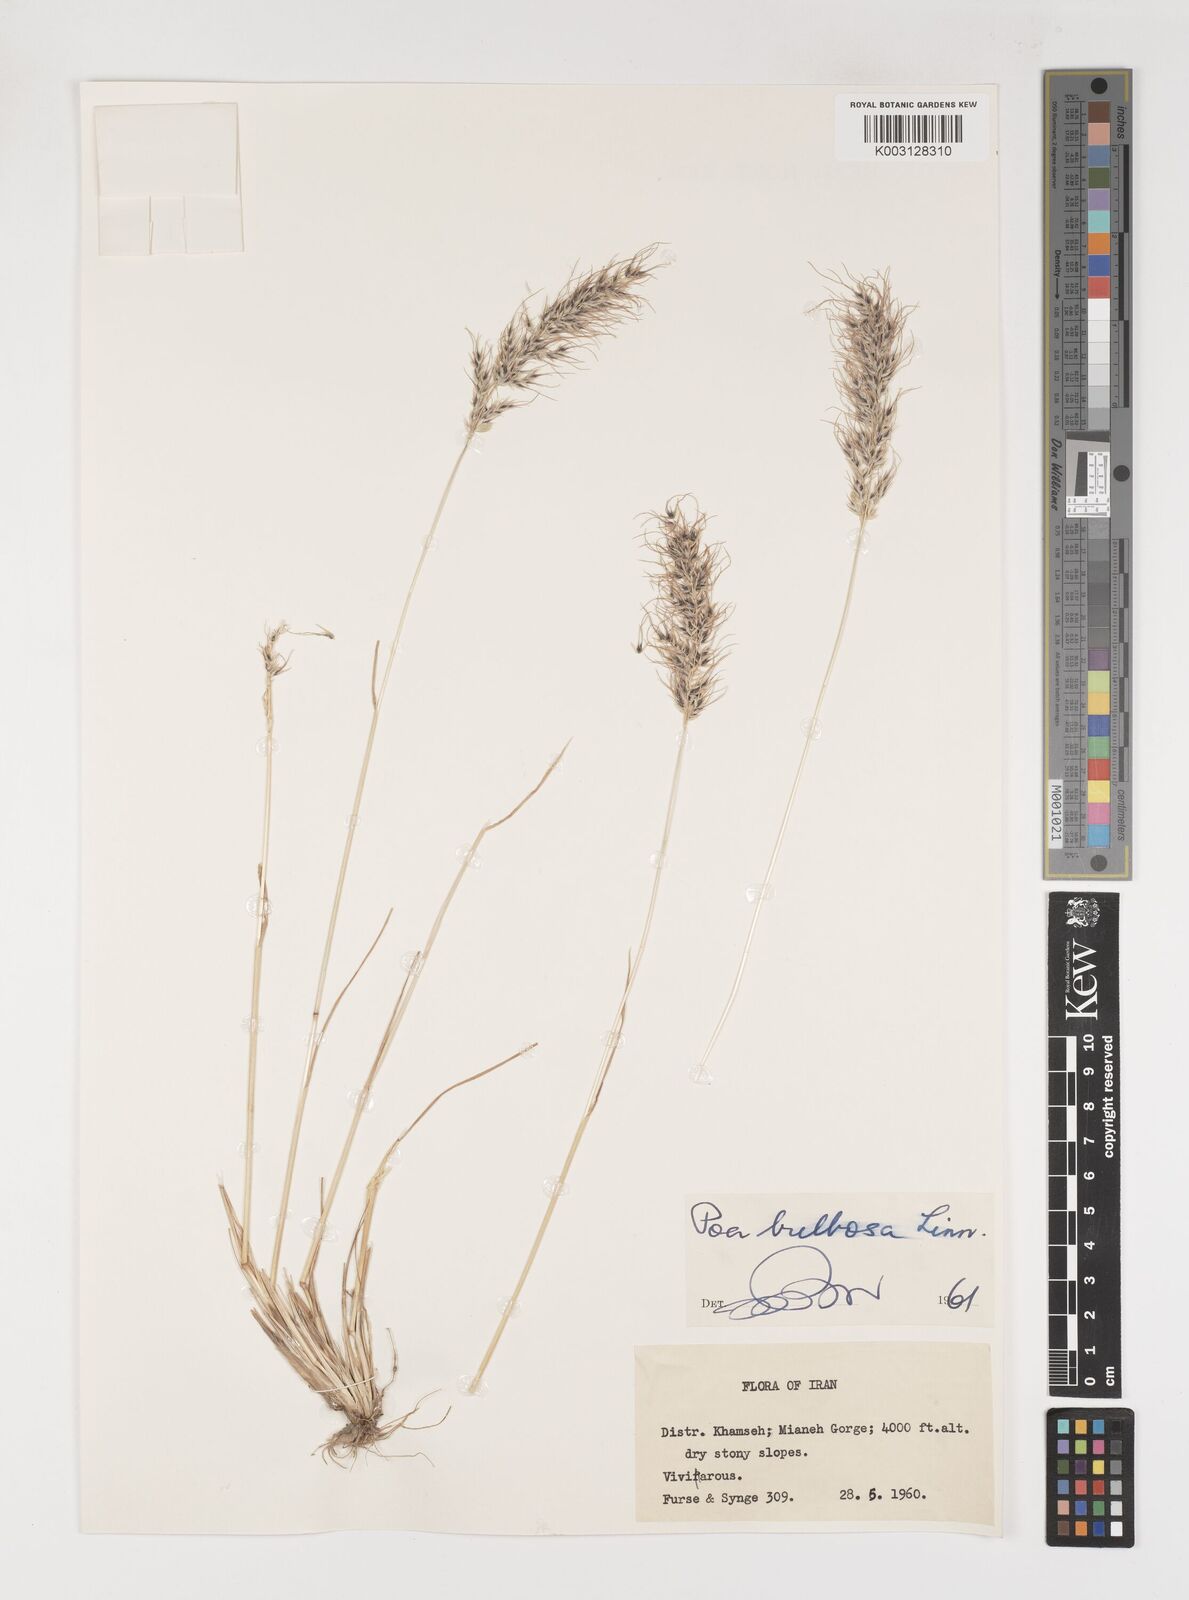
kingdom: Plantae
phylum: Tracheophyta
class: Liliopsida
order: Poales
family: Poaceae
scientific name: Poaceae
